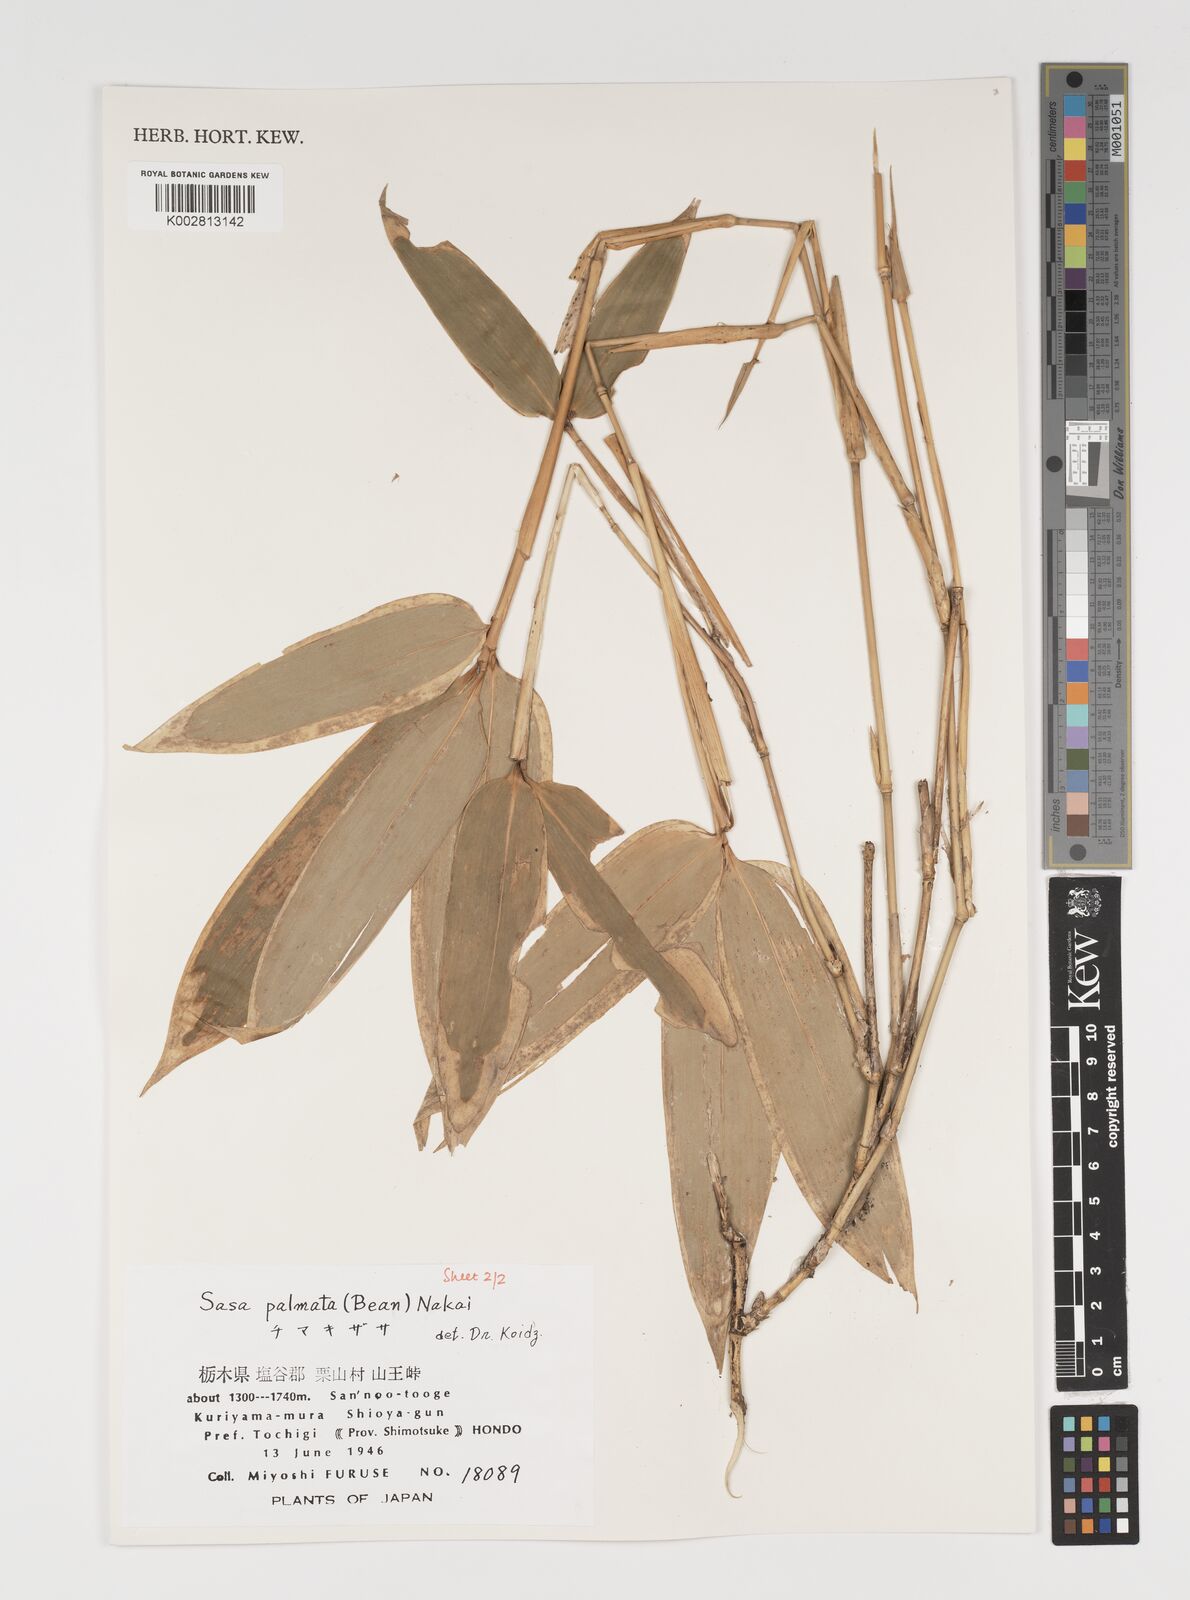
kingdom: Plantae
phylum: Tracheophyta
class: Liliopsida
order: Poales
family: Poaceae
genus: Sasa
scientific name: Sasa palmata
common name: Broad-leaved bamboo
